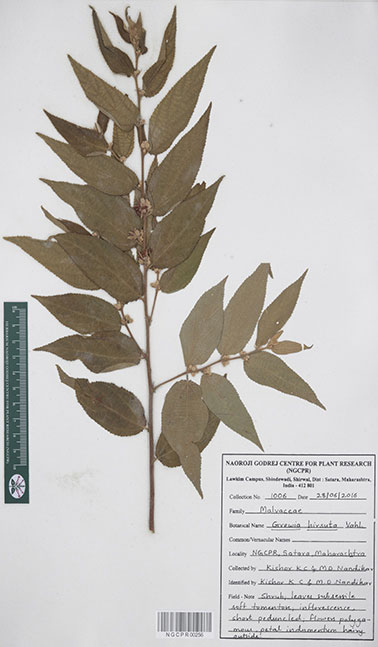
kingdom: Plantae
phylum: Tracheophyta
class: Magnoliopsida
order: Malvales
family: Malvaceae
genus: Grewia
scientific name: Grewia hirsuta
